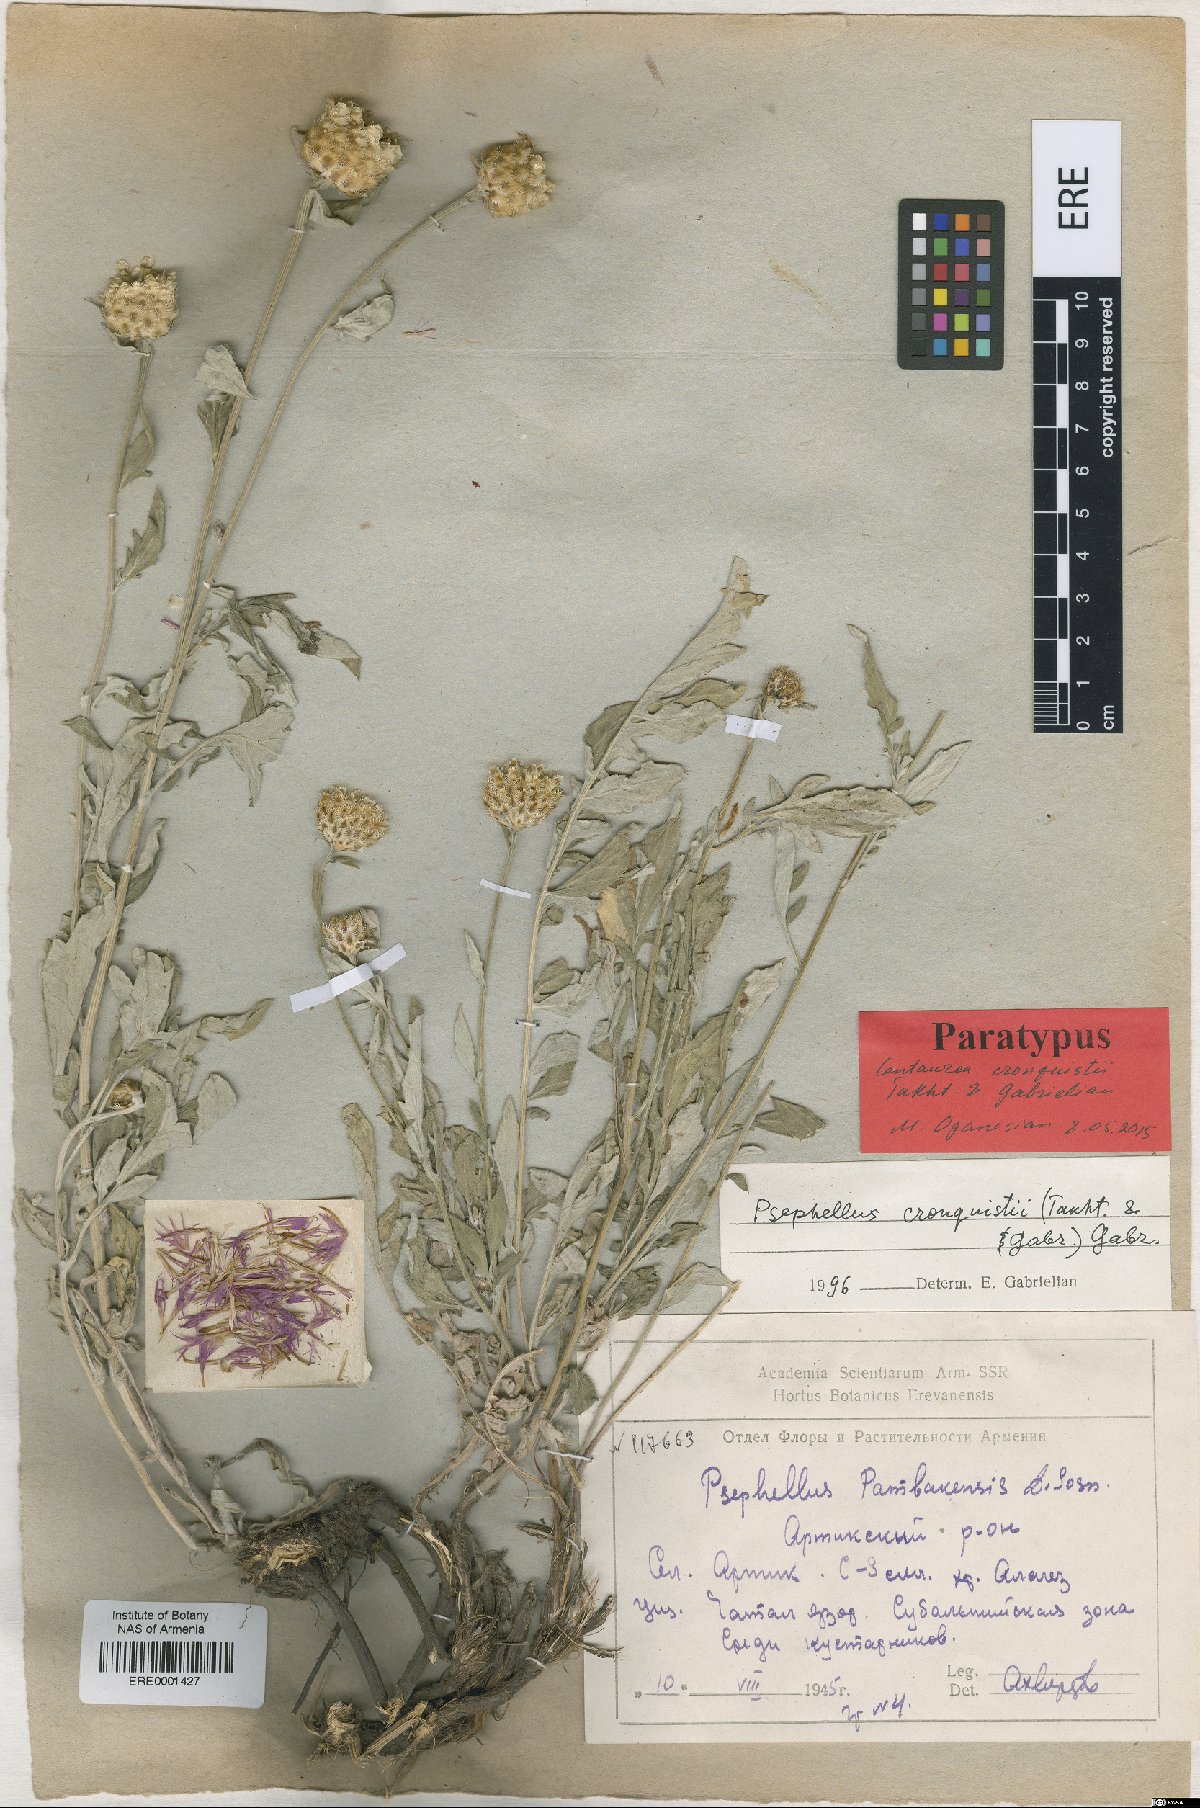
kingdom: Plantae
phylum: Tracheophyta
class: Magnoliopsida
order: Asterales
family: Asteraceae
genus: Psephellus
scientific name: Psephellus cronquistii
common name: Cronquists's cornflower
